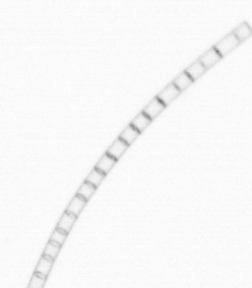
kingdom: Chromista
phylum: Ochrophyta
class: Bacillariophyceae
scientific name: Bacillariophyceae
